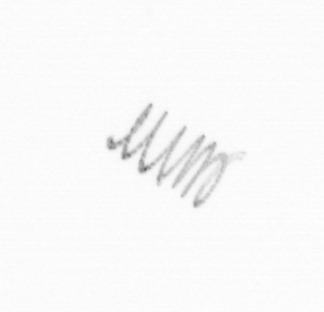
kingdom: Chromista
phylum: Ochrophyta
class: Bacillariophyceae
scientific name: Bacillariophyceae
